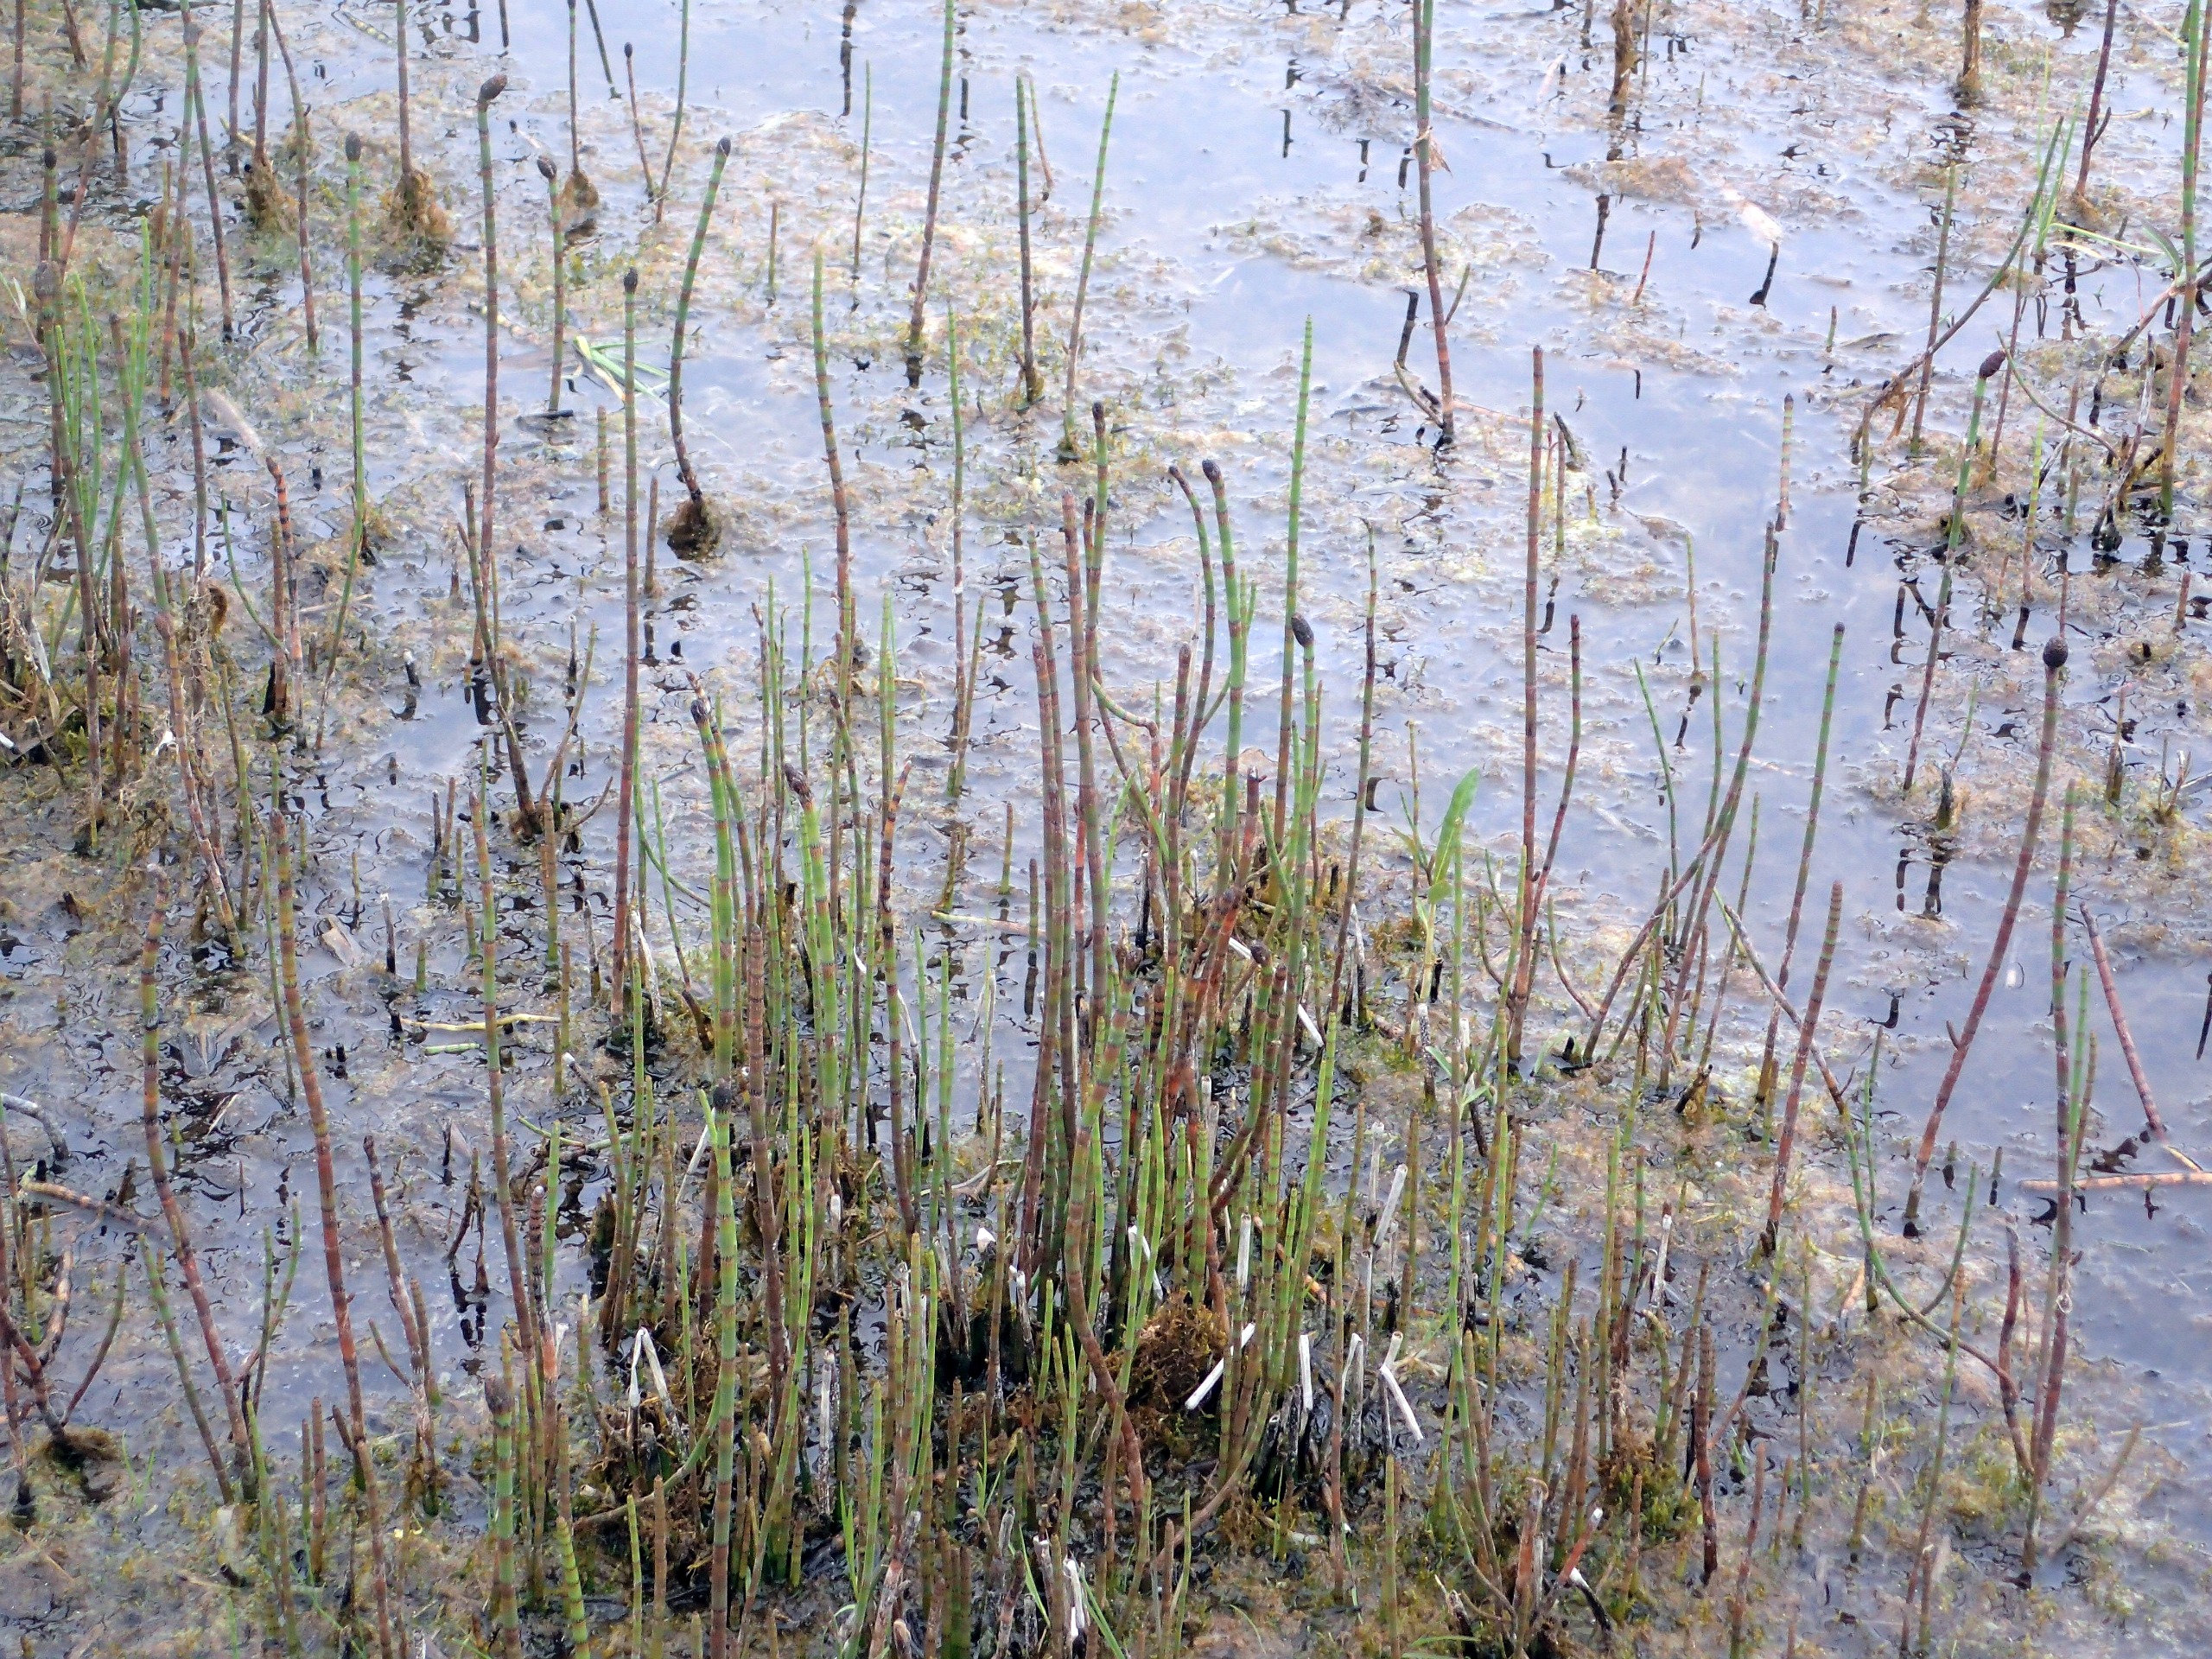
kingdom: Plantae
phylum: Tracheophyta
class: Polypodiopsida
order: Equisetales
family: Equisetaceae
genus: Equisetum
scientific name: Equisetum fluviatile
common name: Dynd-padderok
